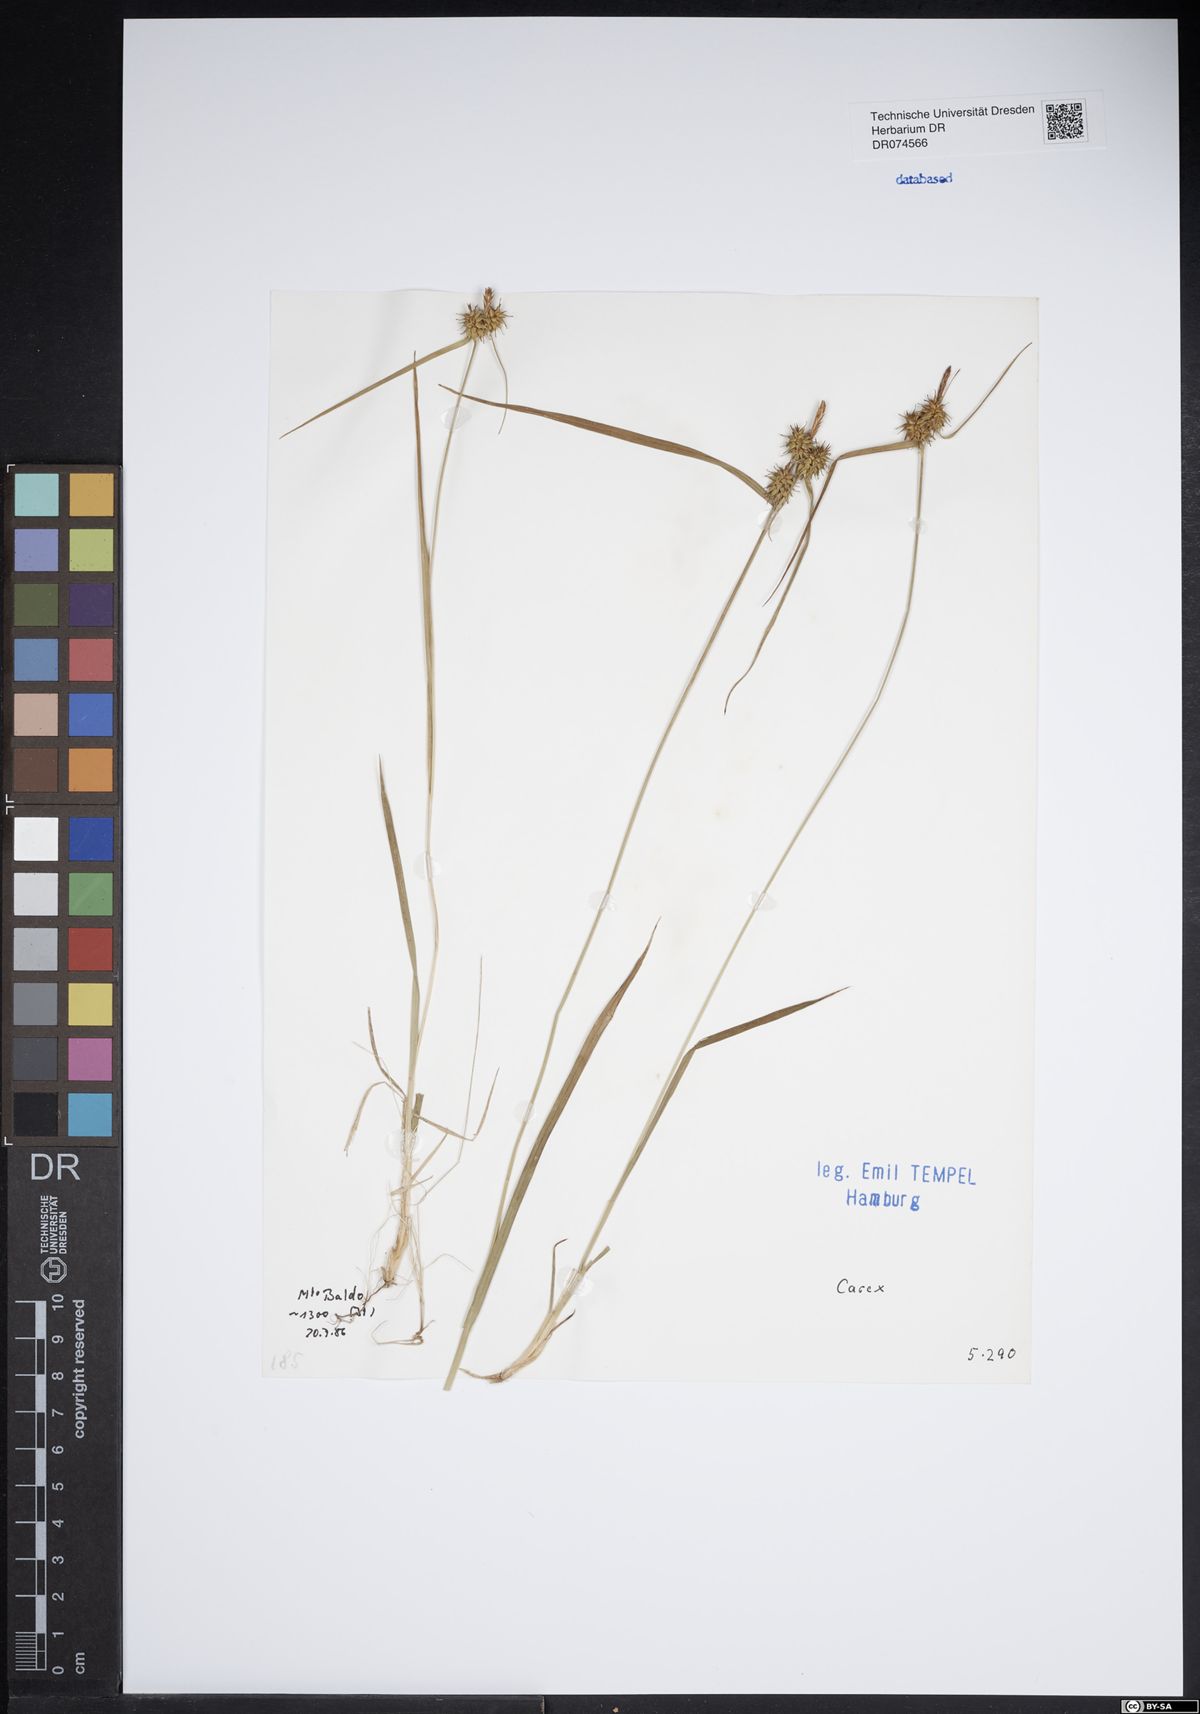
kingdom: Plantae
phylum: Tracheophyta
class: Liliopsida
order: Poales
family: Cyperaceae
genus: Carex
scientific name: Carex
